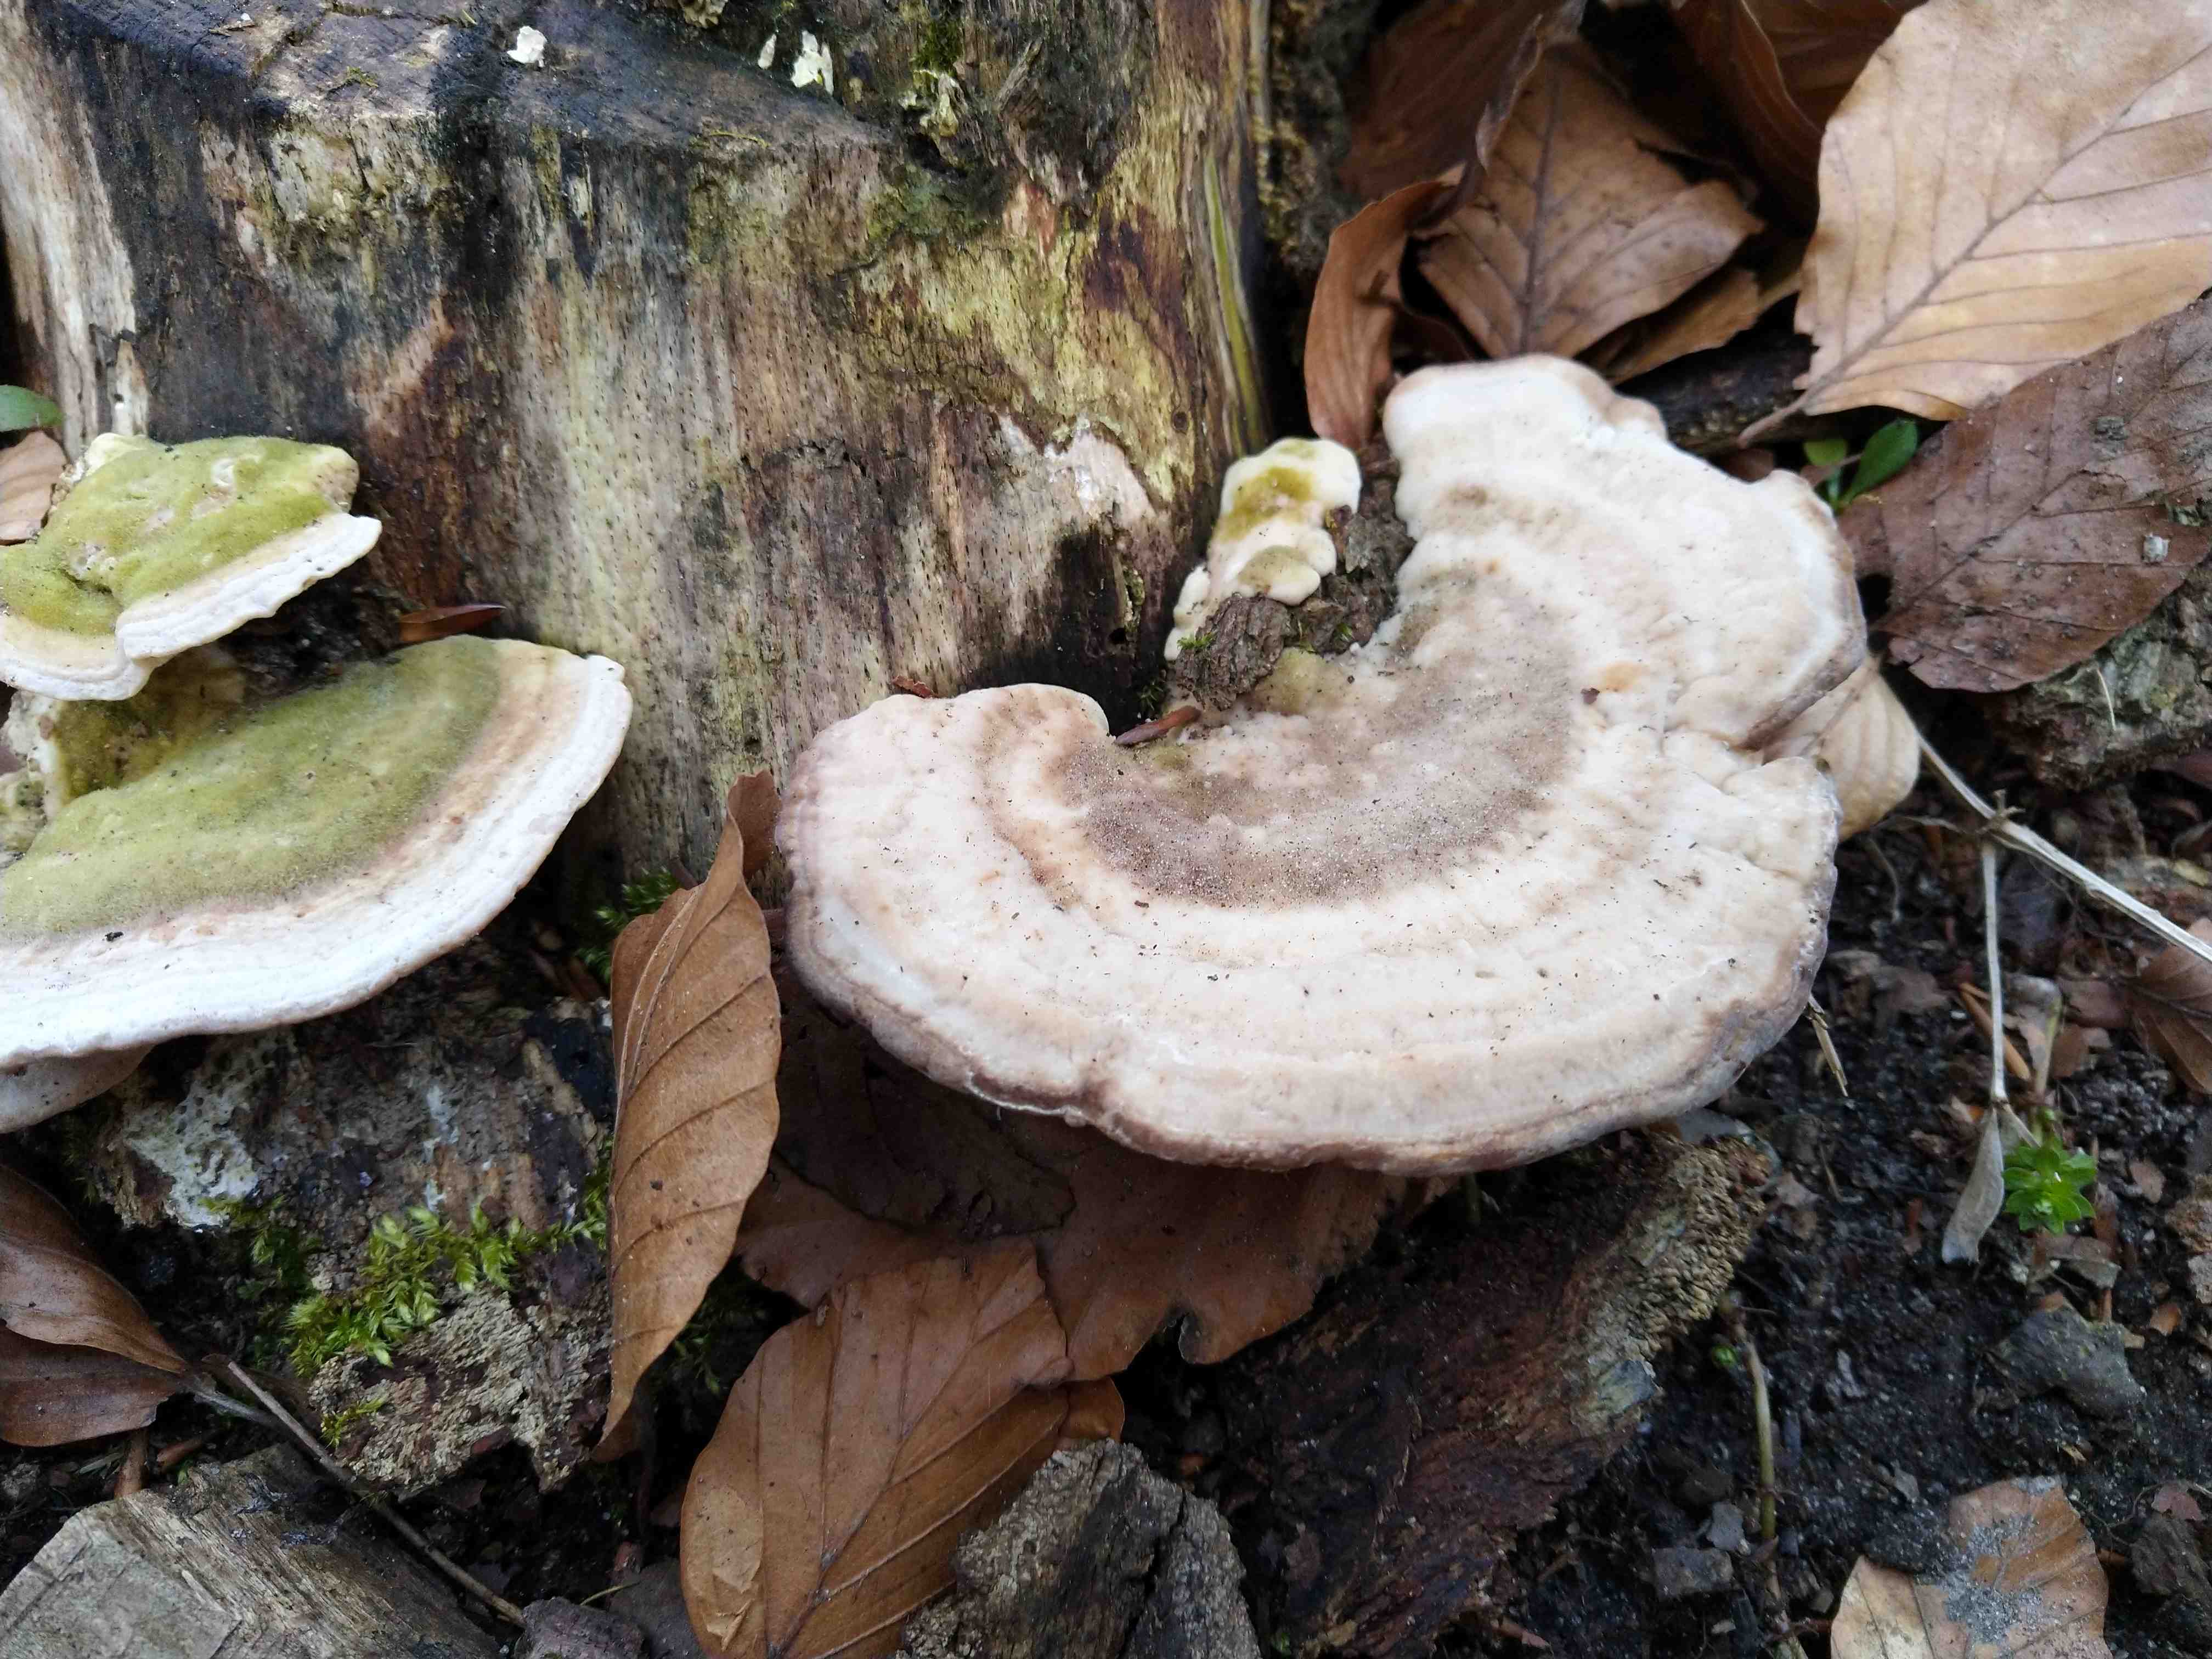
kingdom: Fungi
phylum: Basidiomycota
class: Agaricomycetes
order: Polyporales
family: Polyporaceae
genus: Trametes
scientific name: Trametes gibbosa
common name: puklet læderporesvamp
